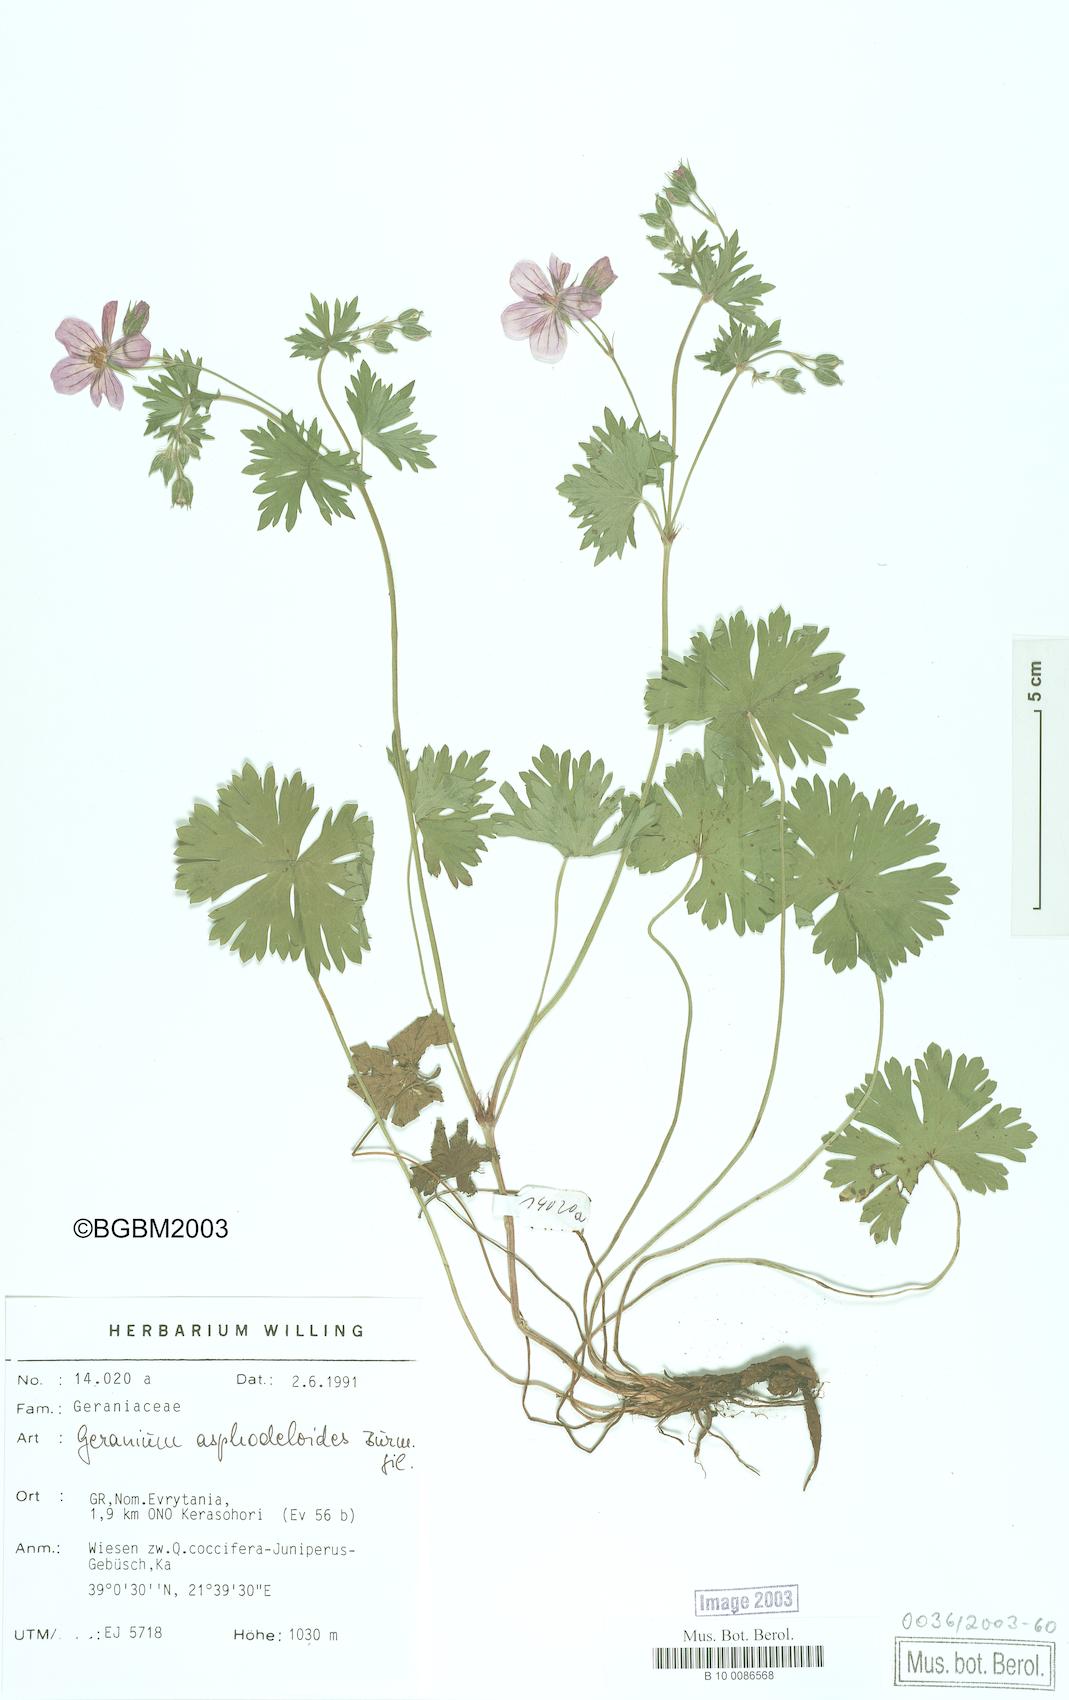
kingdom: Plantae
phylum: Tracheophyta
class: Magnoliopsida
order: Geraniales
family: Geraniaceae
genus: Geranium
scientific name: Geranium asphodeloides
